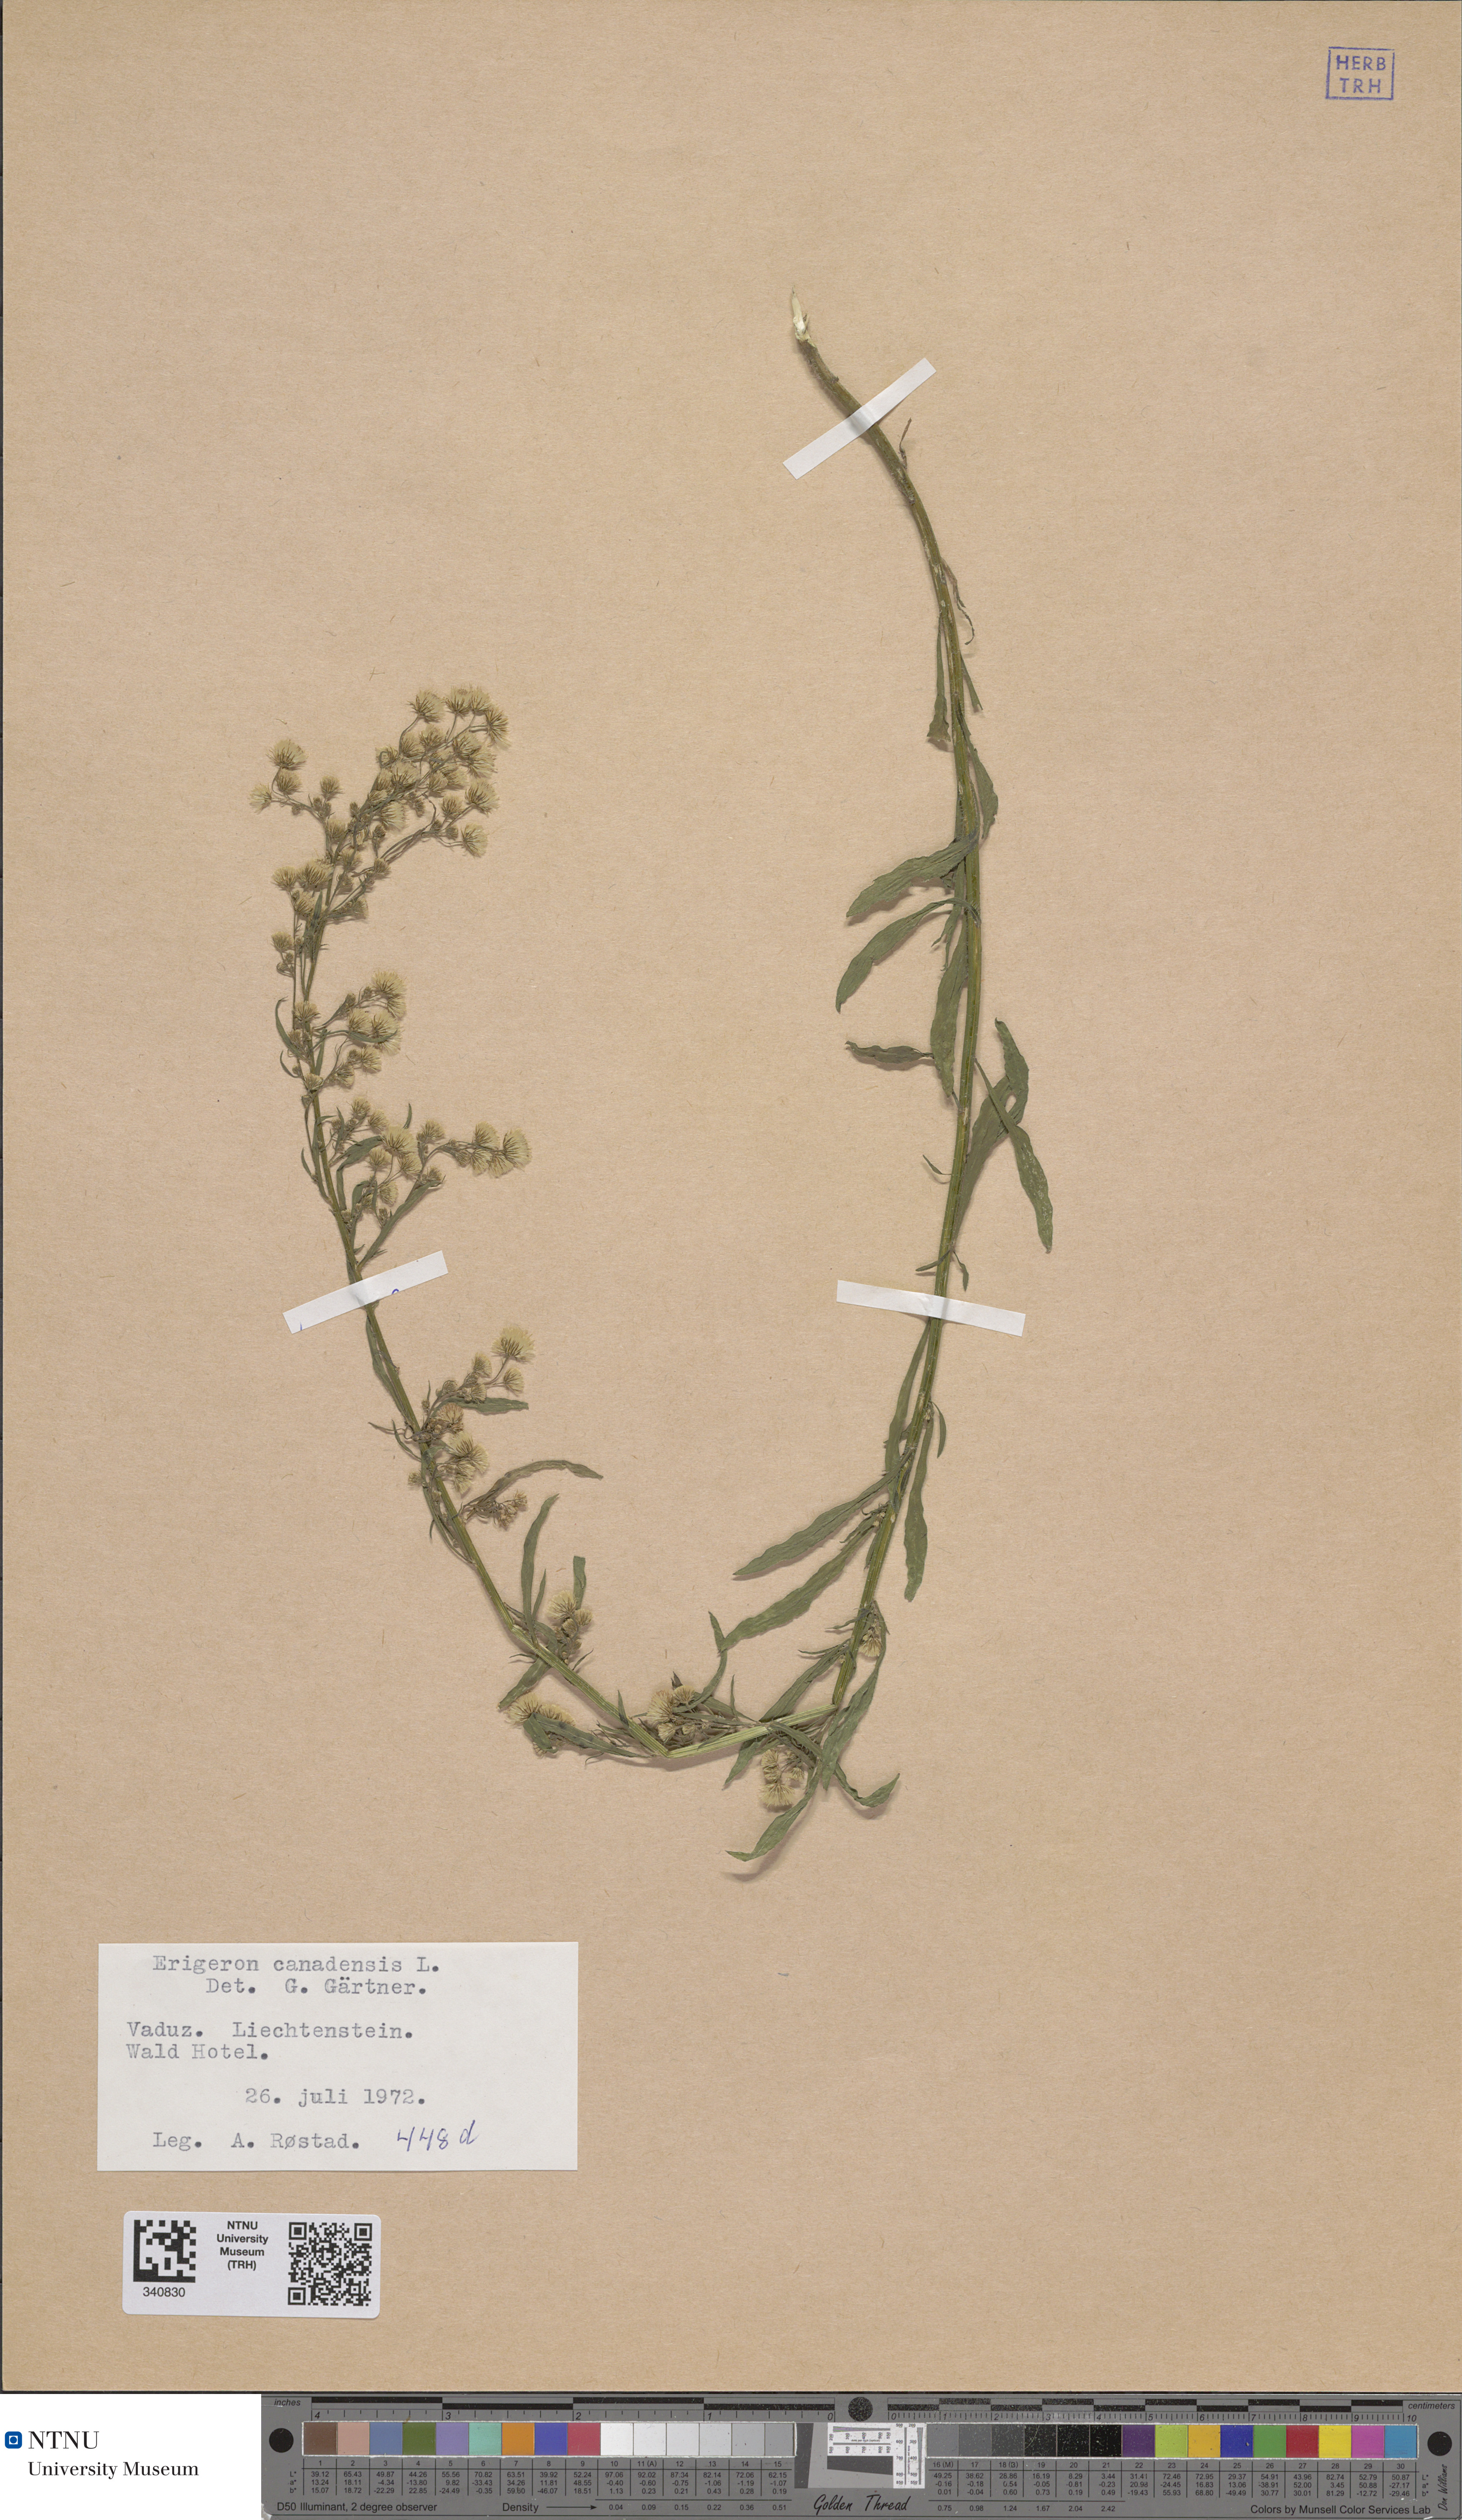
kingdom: Plantae
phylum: Tracheophyta
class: Magnoliopsida
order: Asterales
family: Asteraceae
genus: Erigeron
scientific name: Erigeron canadensis
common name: Canadian fleabane
